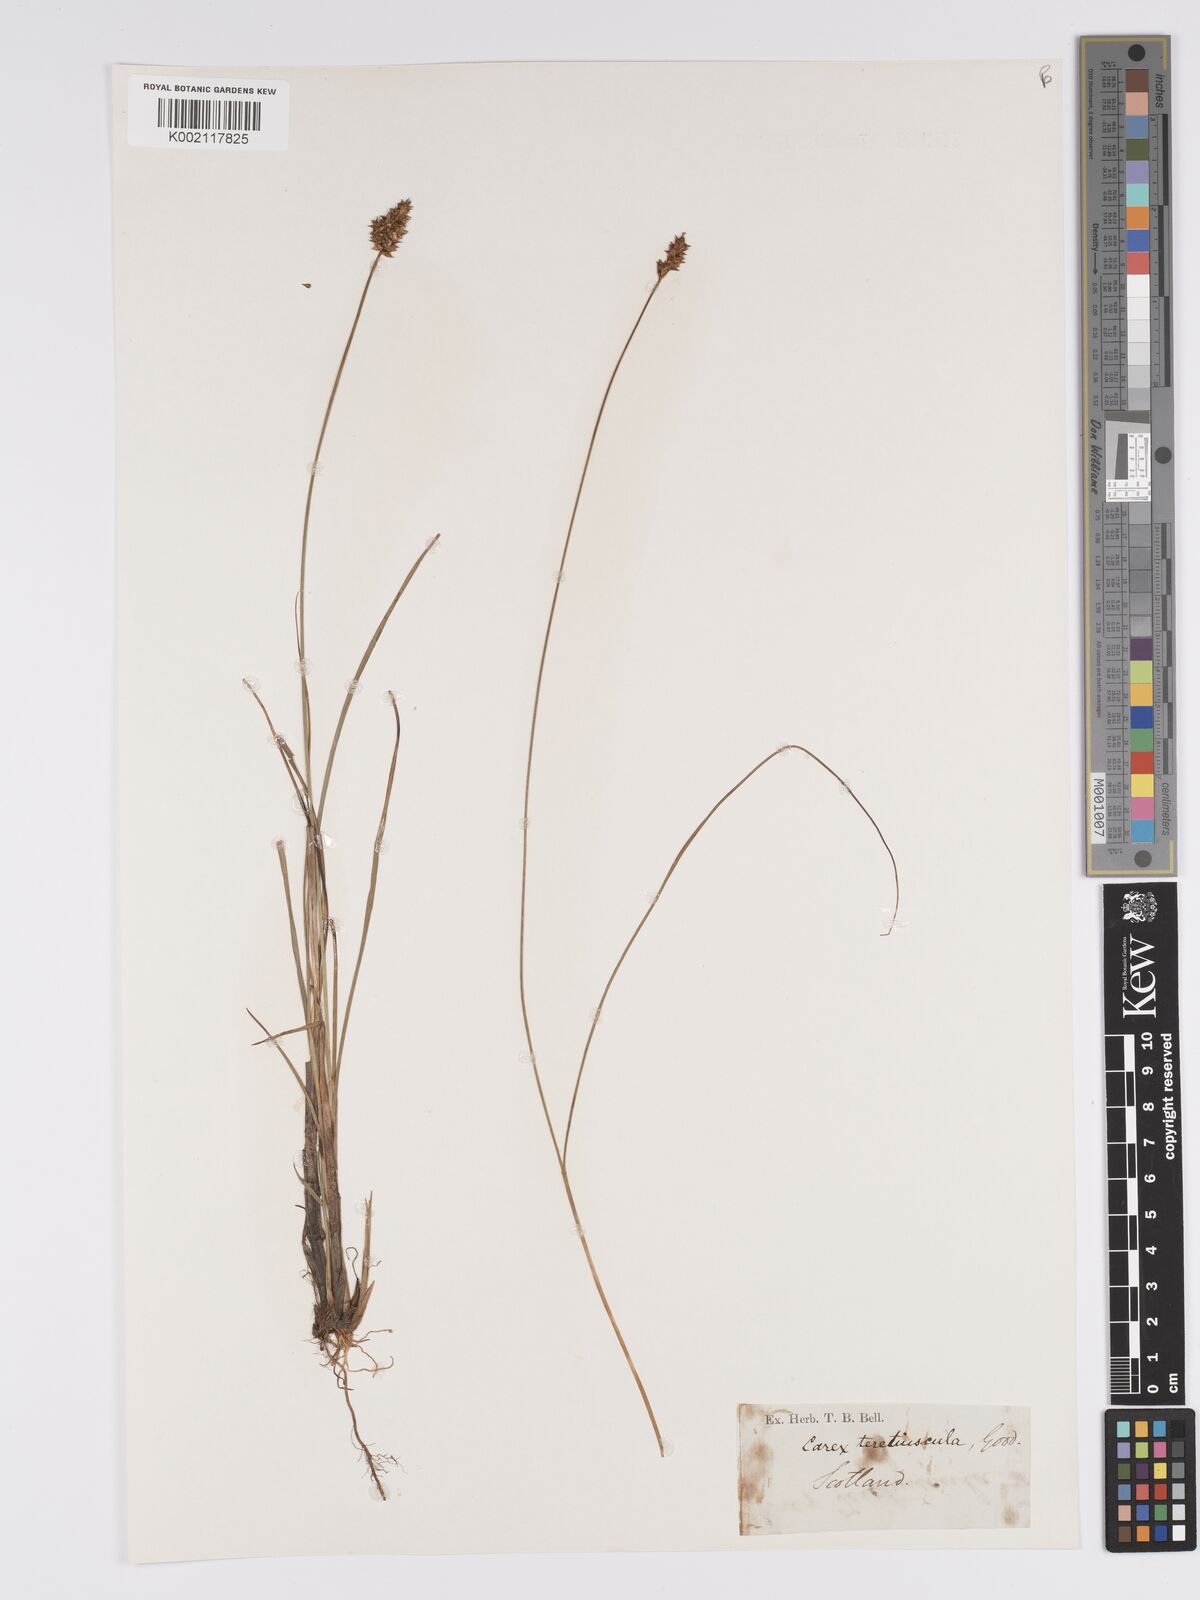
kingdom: Plantae
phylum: Tracheophyta
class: Liliopsida
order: Poales
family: Cyperaceae
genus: Carex
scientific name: Carex diandra
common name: Lesser tussock-sedge
